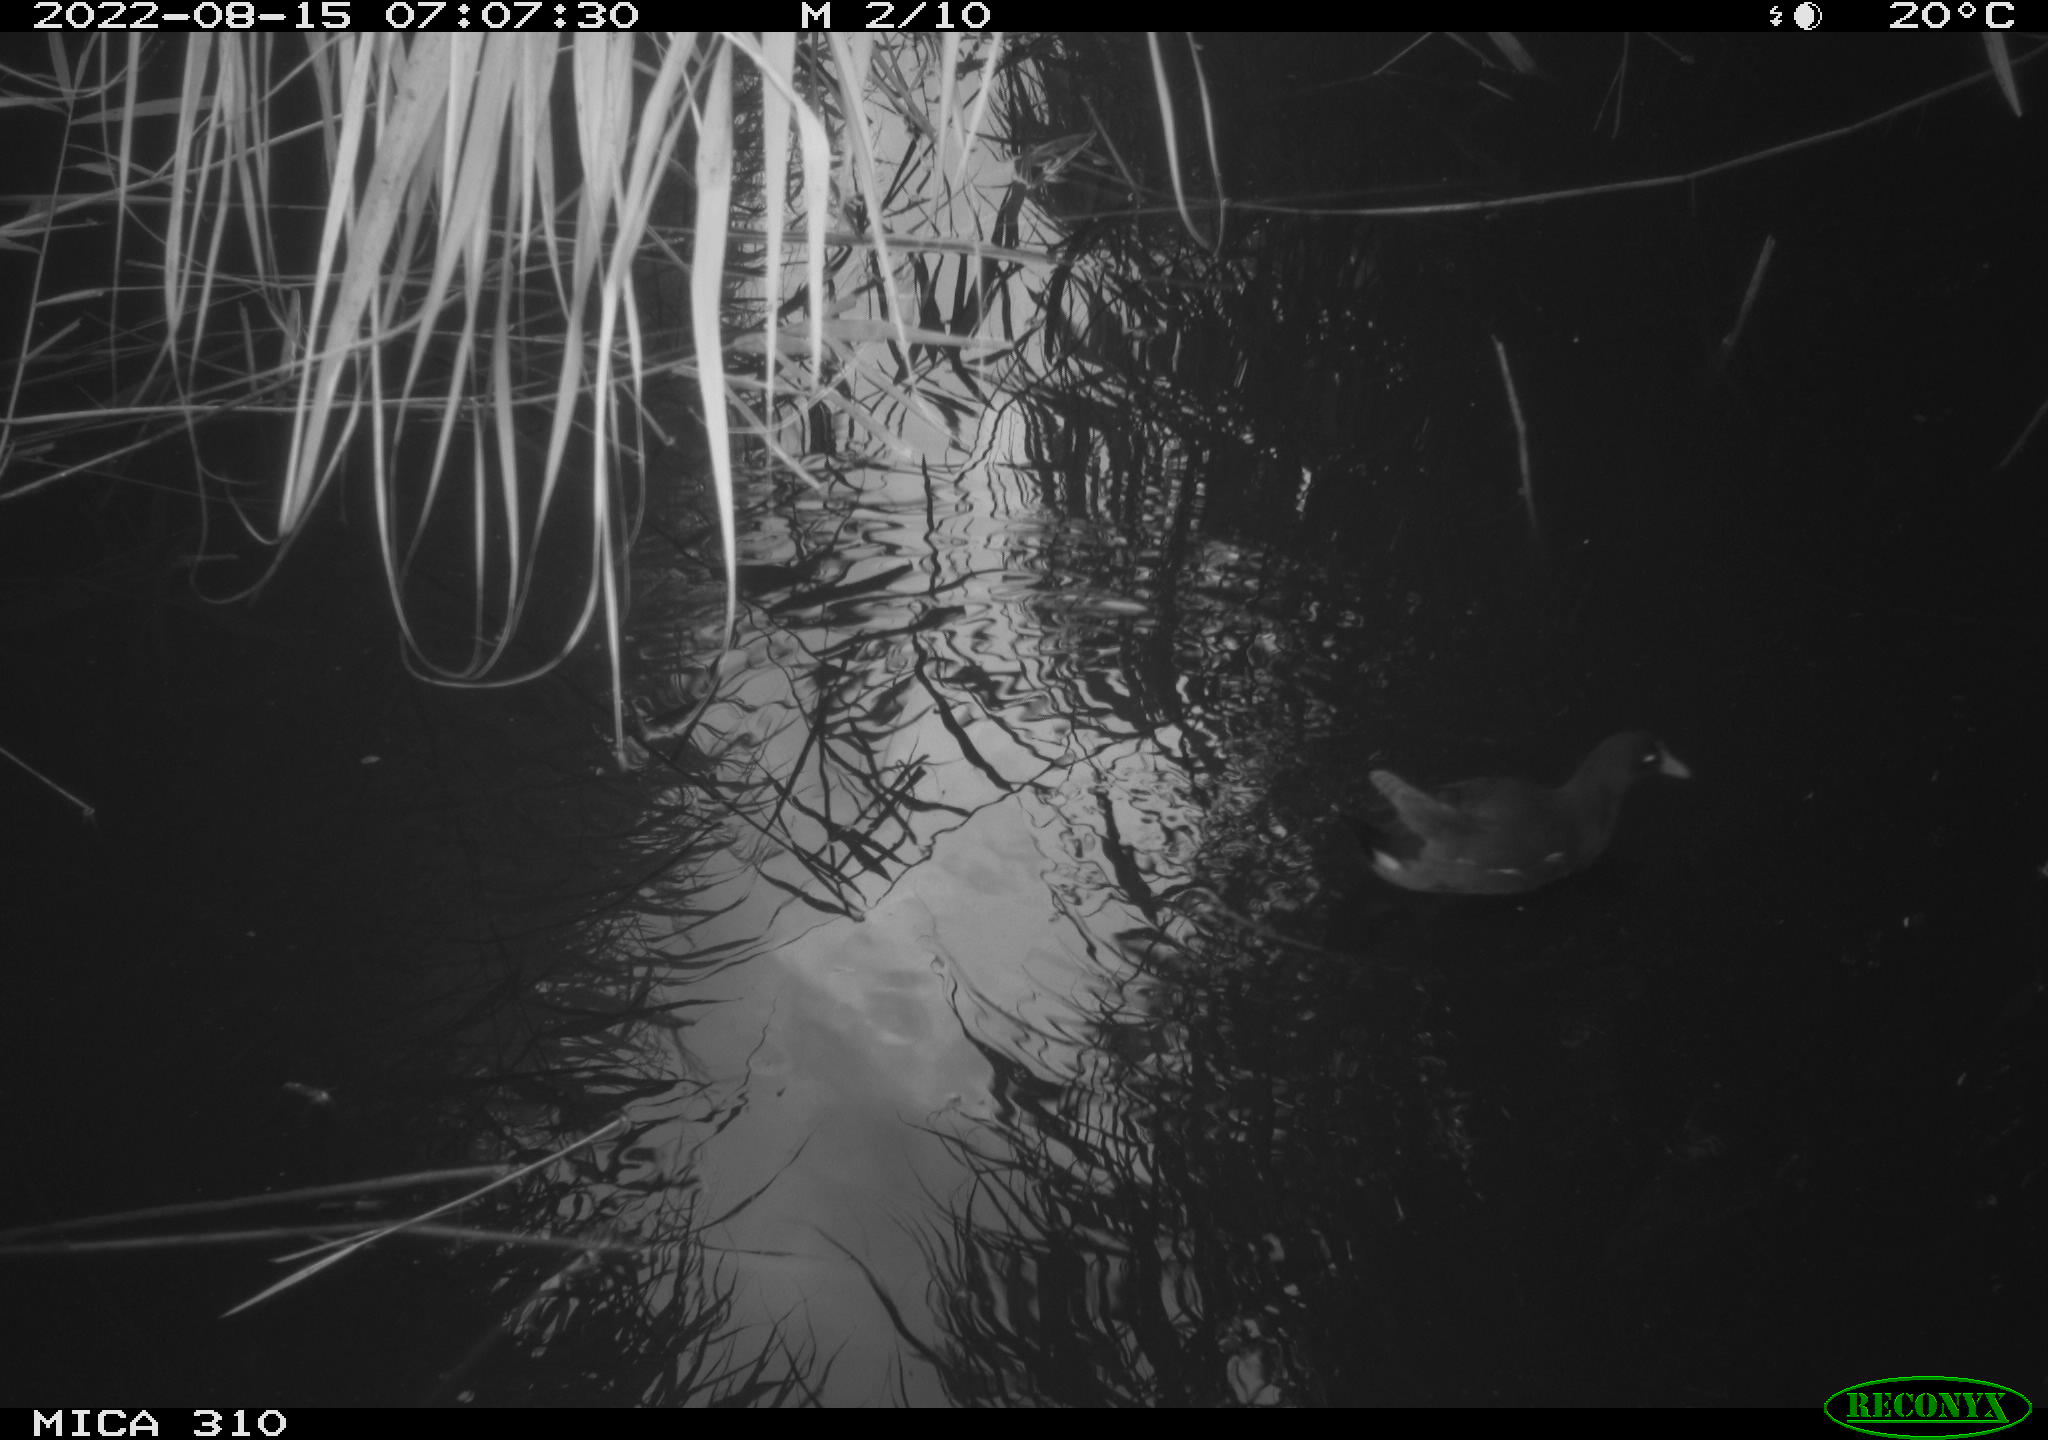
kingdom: Animalia
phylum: Chordata
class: Aves
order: Gruiformes
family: Rallidae
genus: Gallinula
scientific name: Gallinula chloropus
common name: Common moorhen
